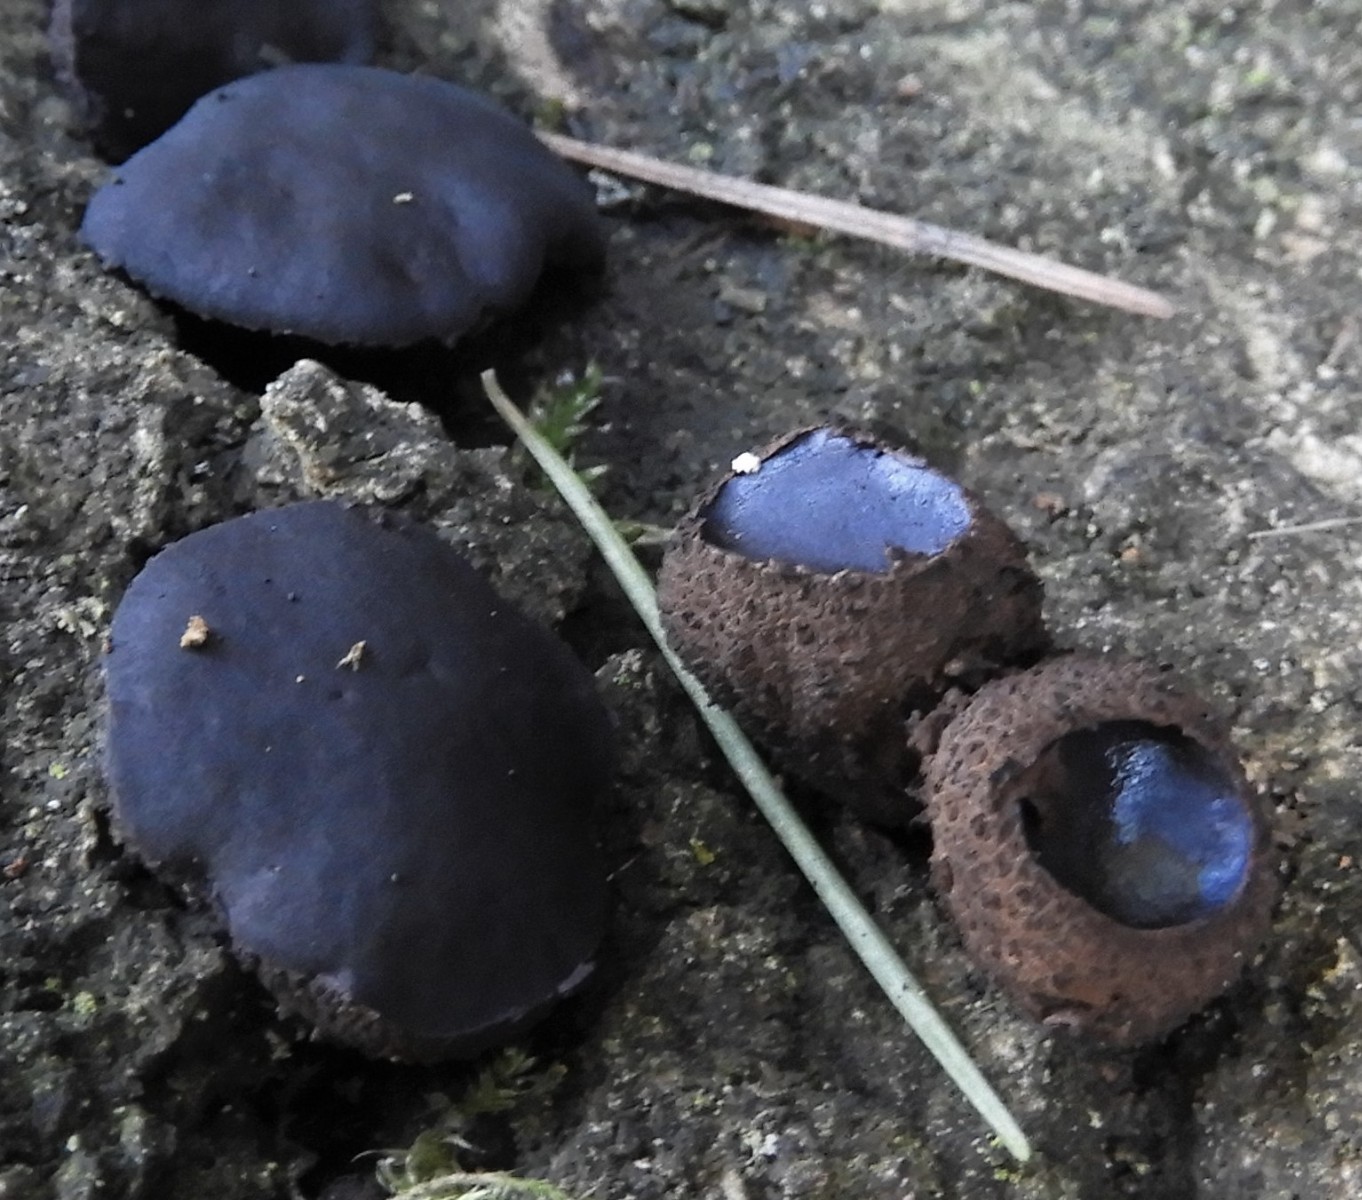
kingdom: Fungi
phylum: Ascomycota
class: Leotiomycetes
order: Phacidiales
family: Phacidiaceae
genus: Bulgaria
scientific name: Bulgaria inquinans
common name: afsmittende topsvamp
